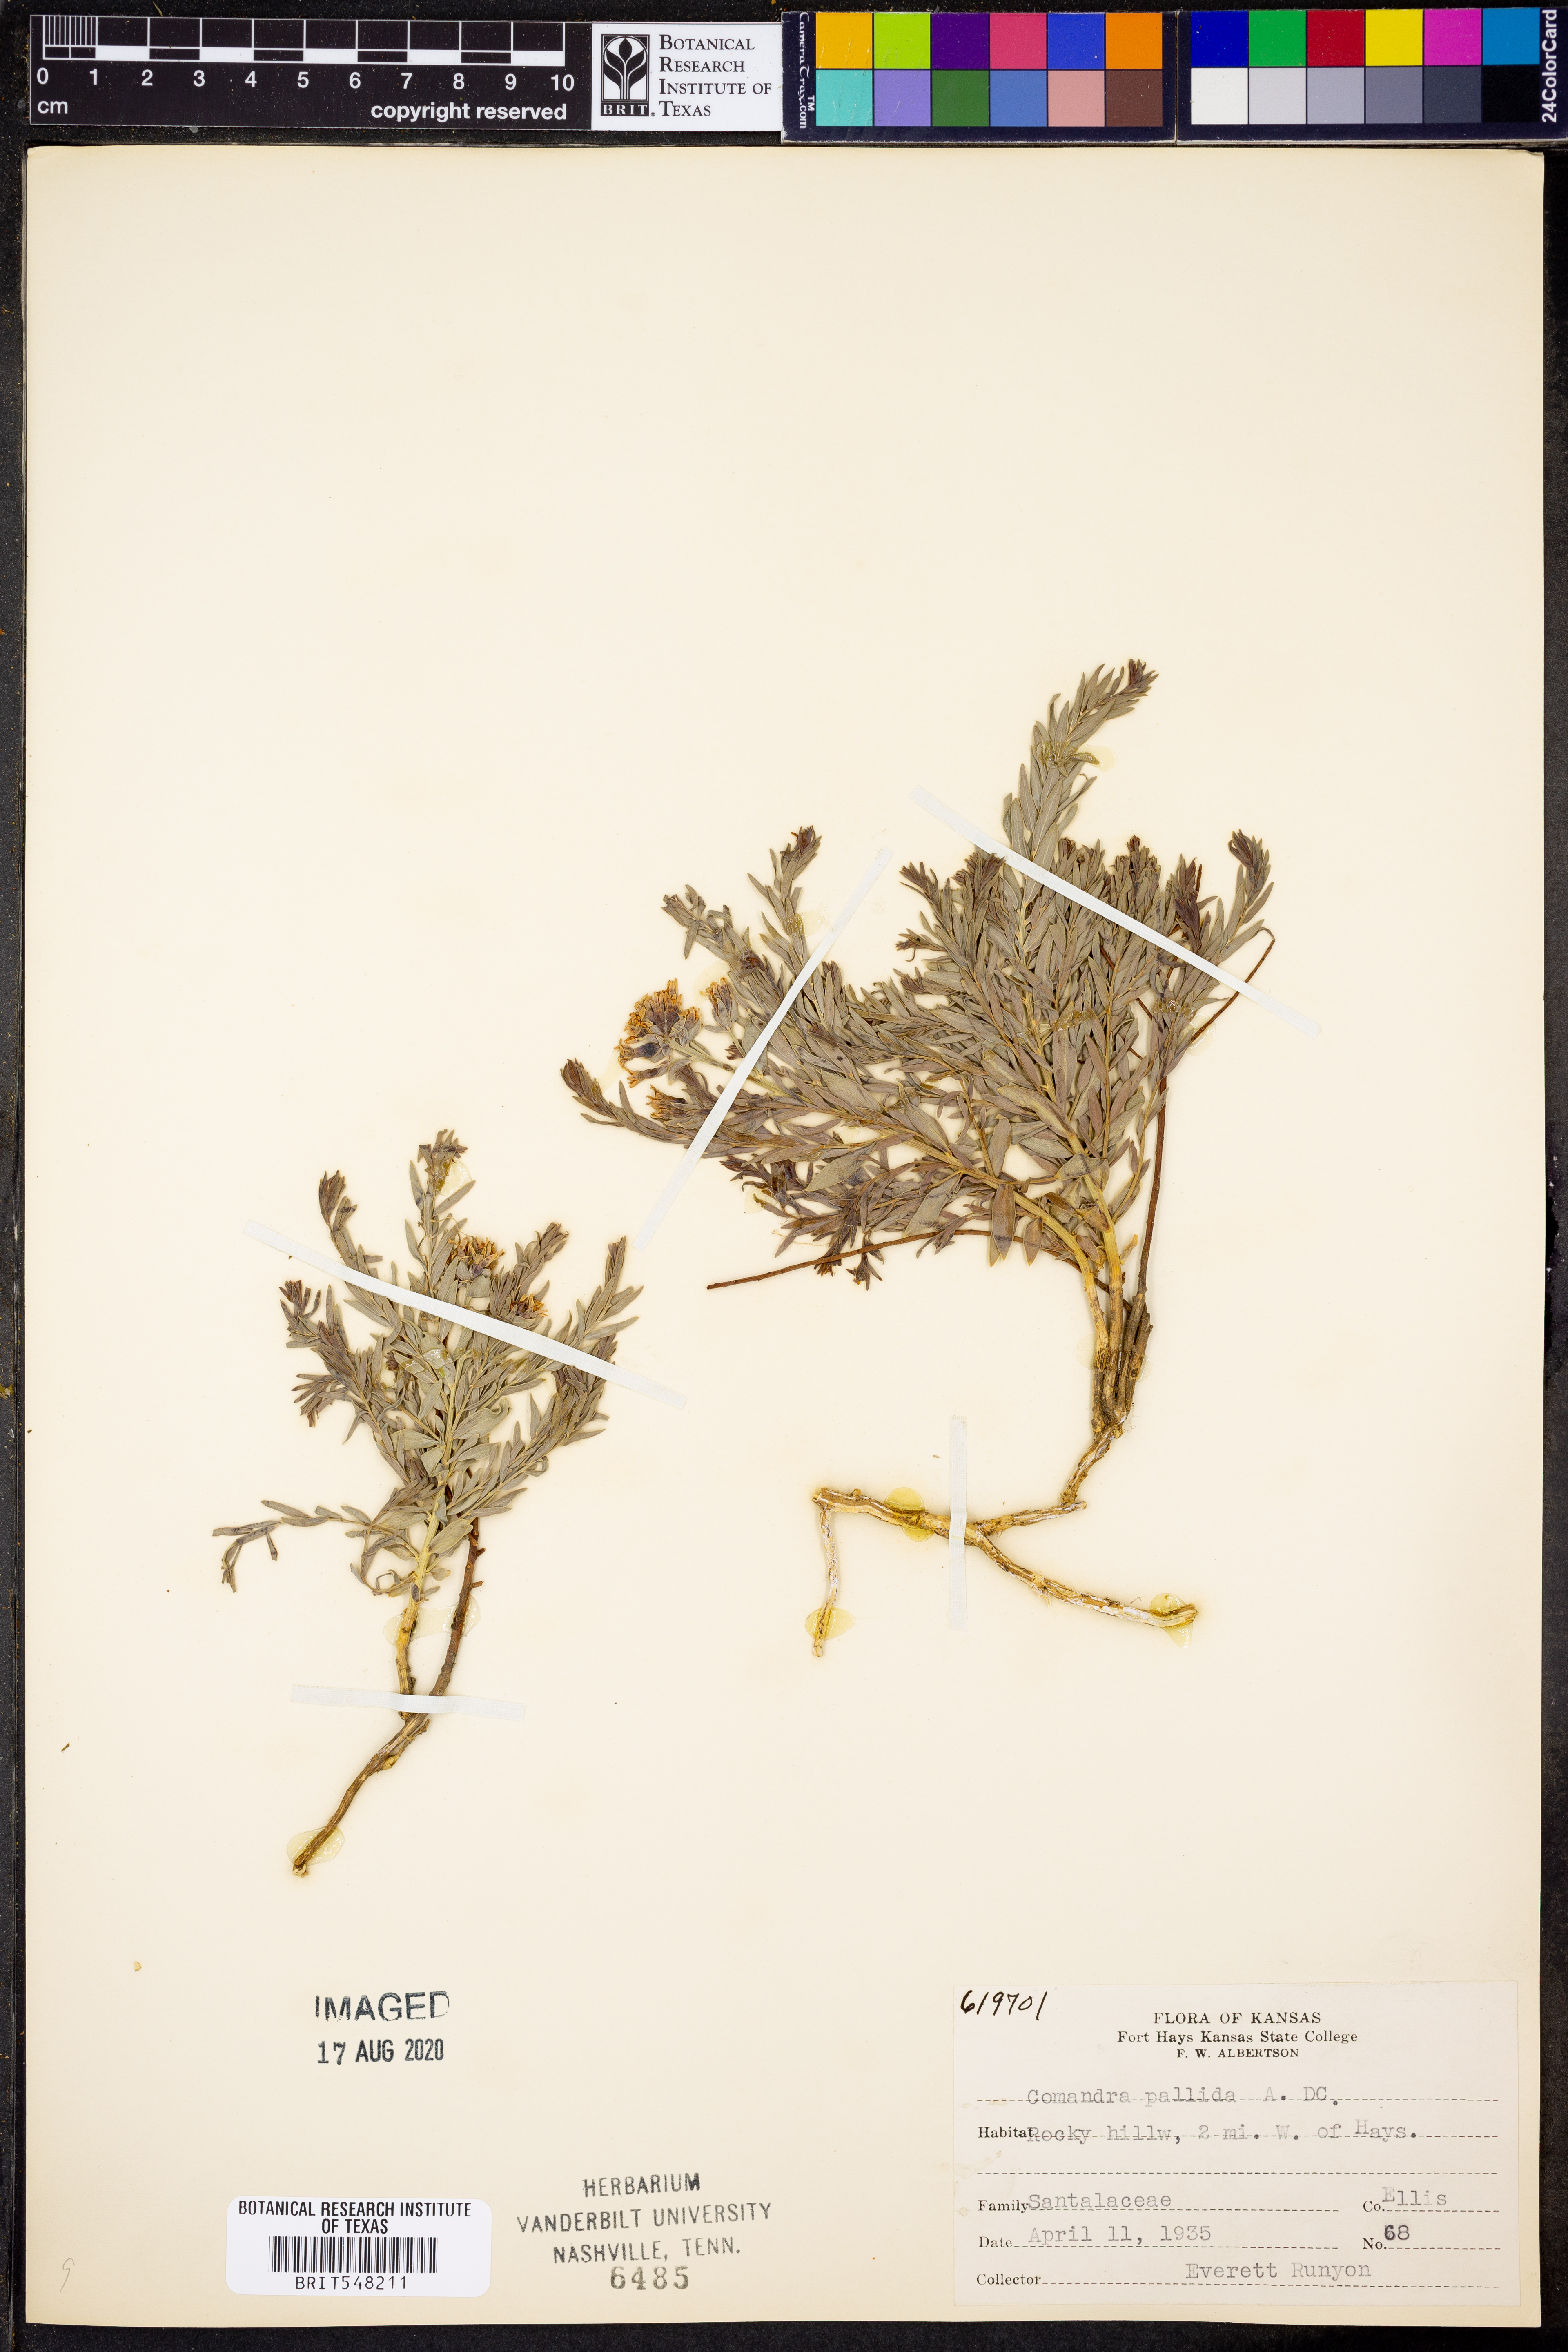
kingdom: Plantae
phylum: Tracheophyta
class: Magnoliopsida
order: Santalales
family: Comandraceae
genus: Comandra
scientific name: Comandra umbellata
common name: Bastard toadflax
